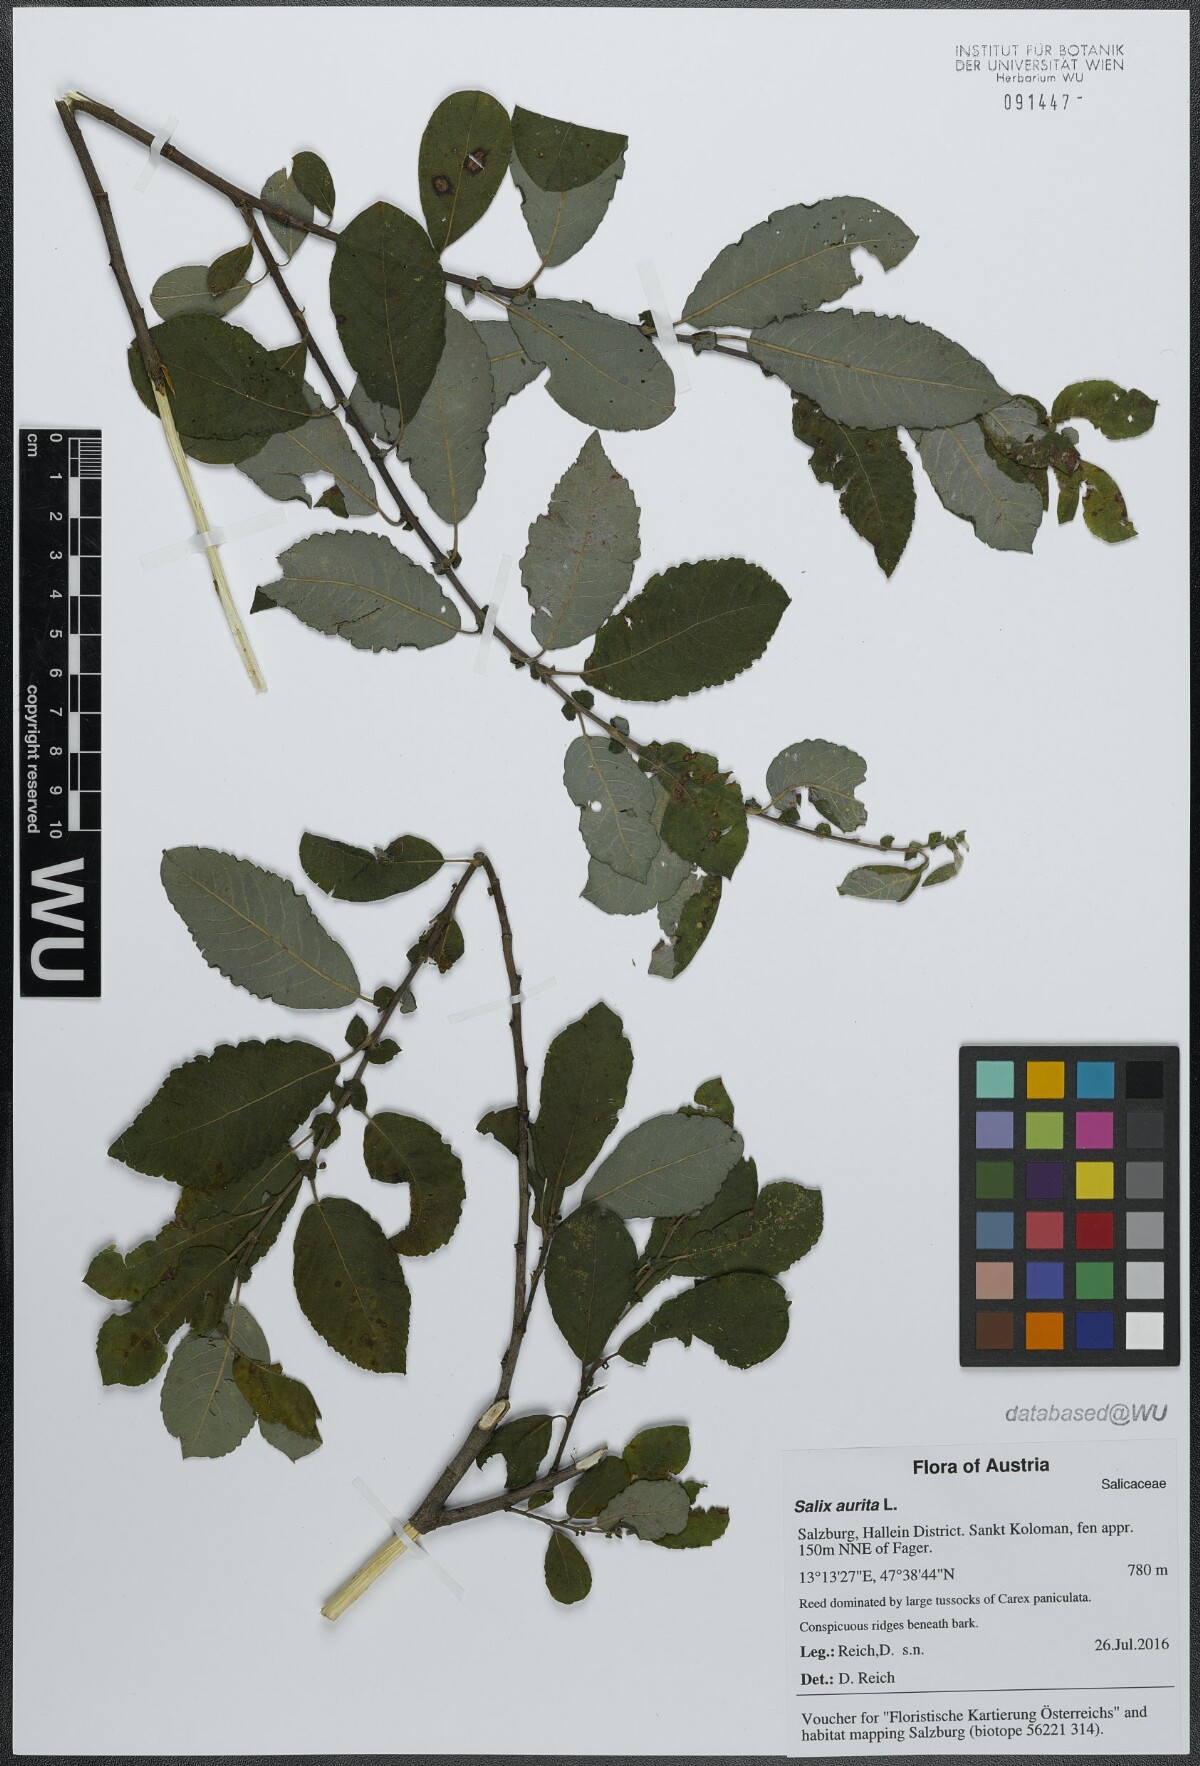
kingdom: Plantae
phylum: Tracheophyta
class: Magnoliopsida
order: Malpighiales
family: Salicaceae
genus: Salix
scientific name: Salix aurita
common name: Eared willow
